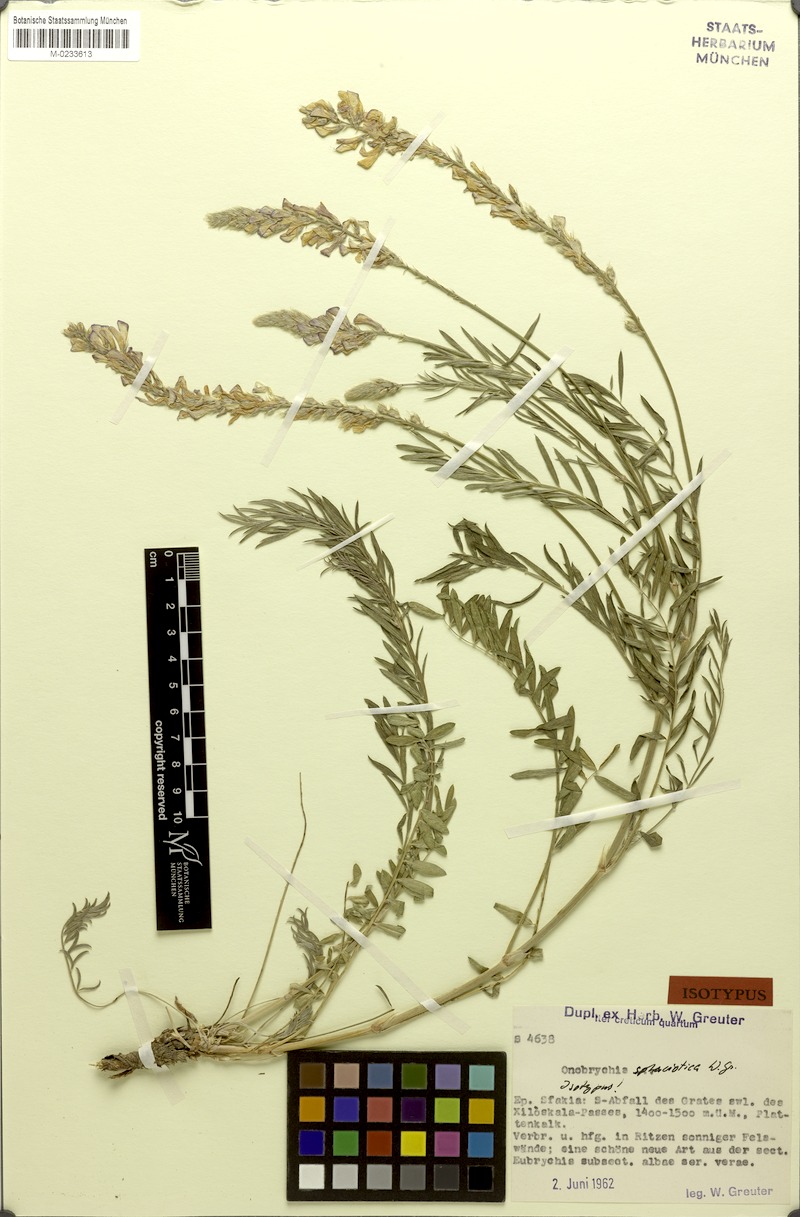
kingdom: Plantae
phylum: Tracheophyta
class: Magnoliopsida
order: Fabales
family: Fabaceae
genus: Onobrychis
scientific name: Onobrychis sphaciotica
